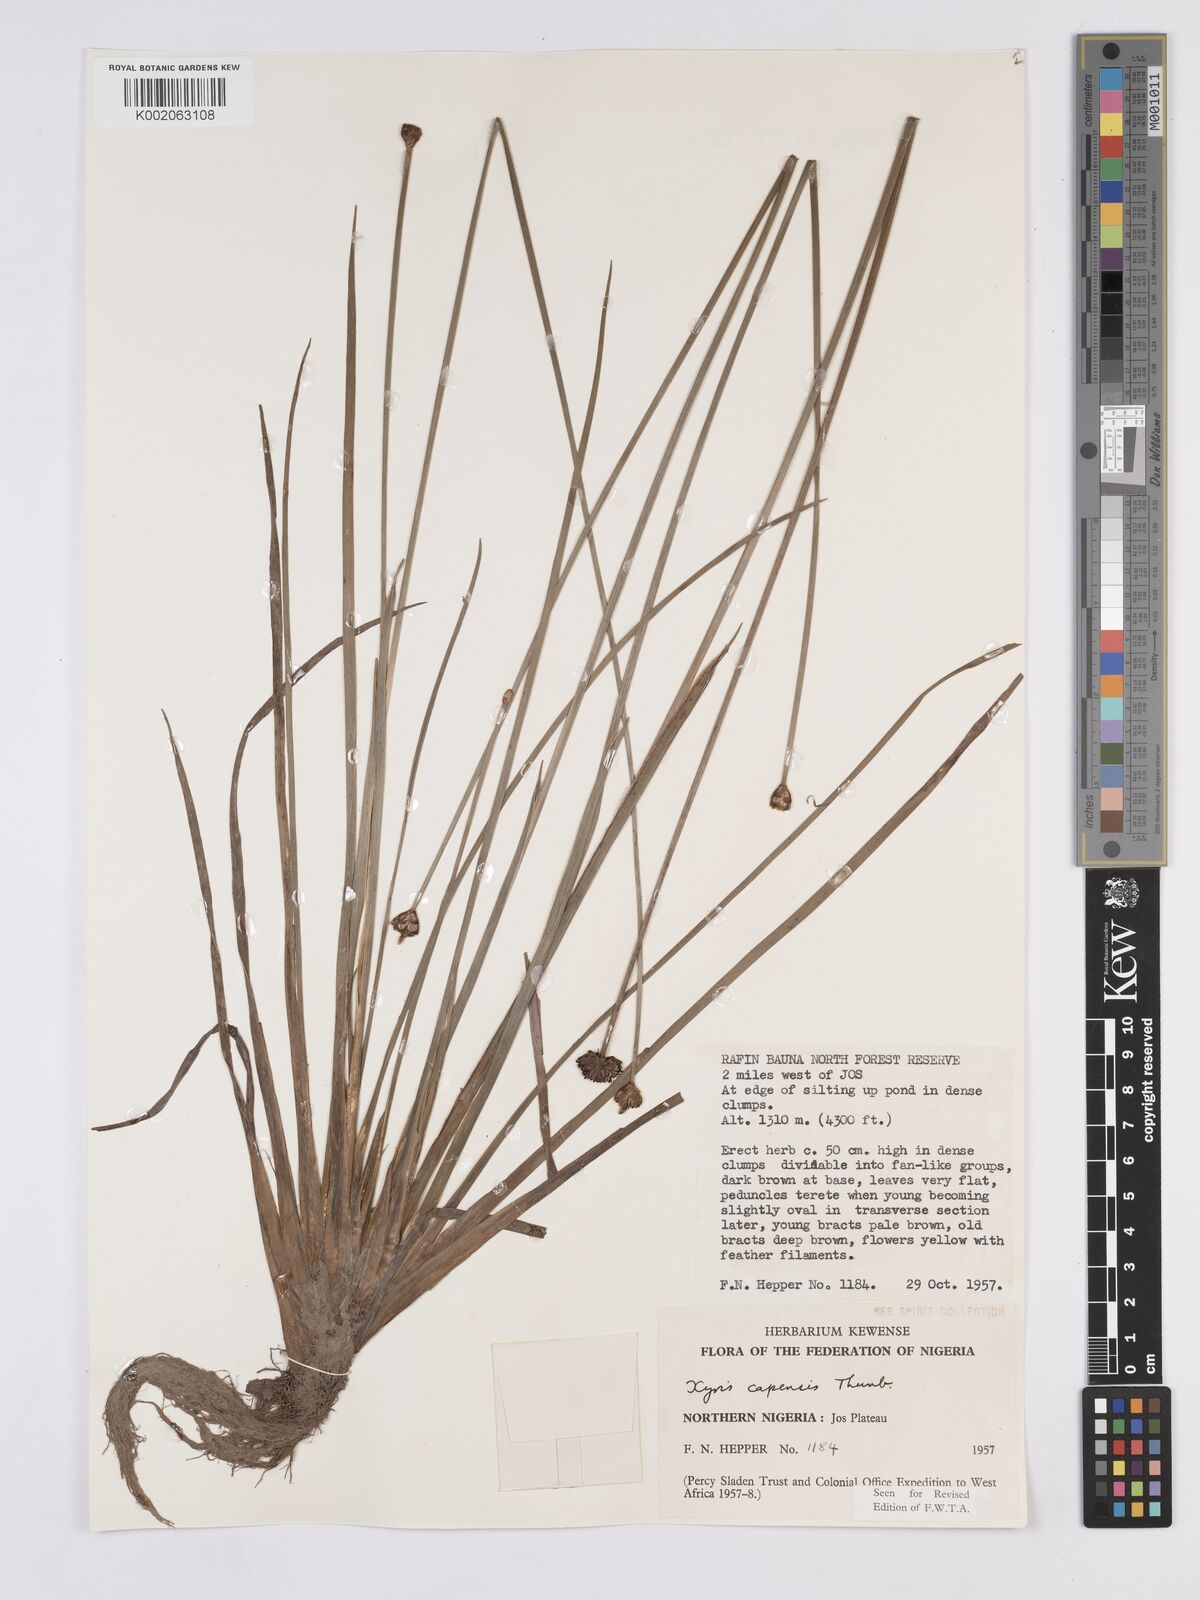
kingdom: Plantae
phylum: Tracheophyta
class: Liliopsida
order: Poales
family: Xyridaceae
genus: Xyris
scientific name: Xyris capensis
